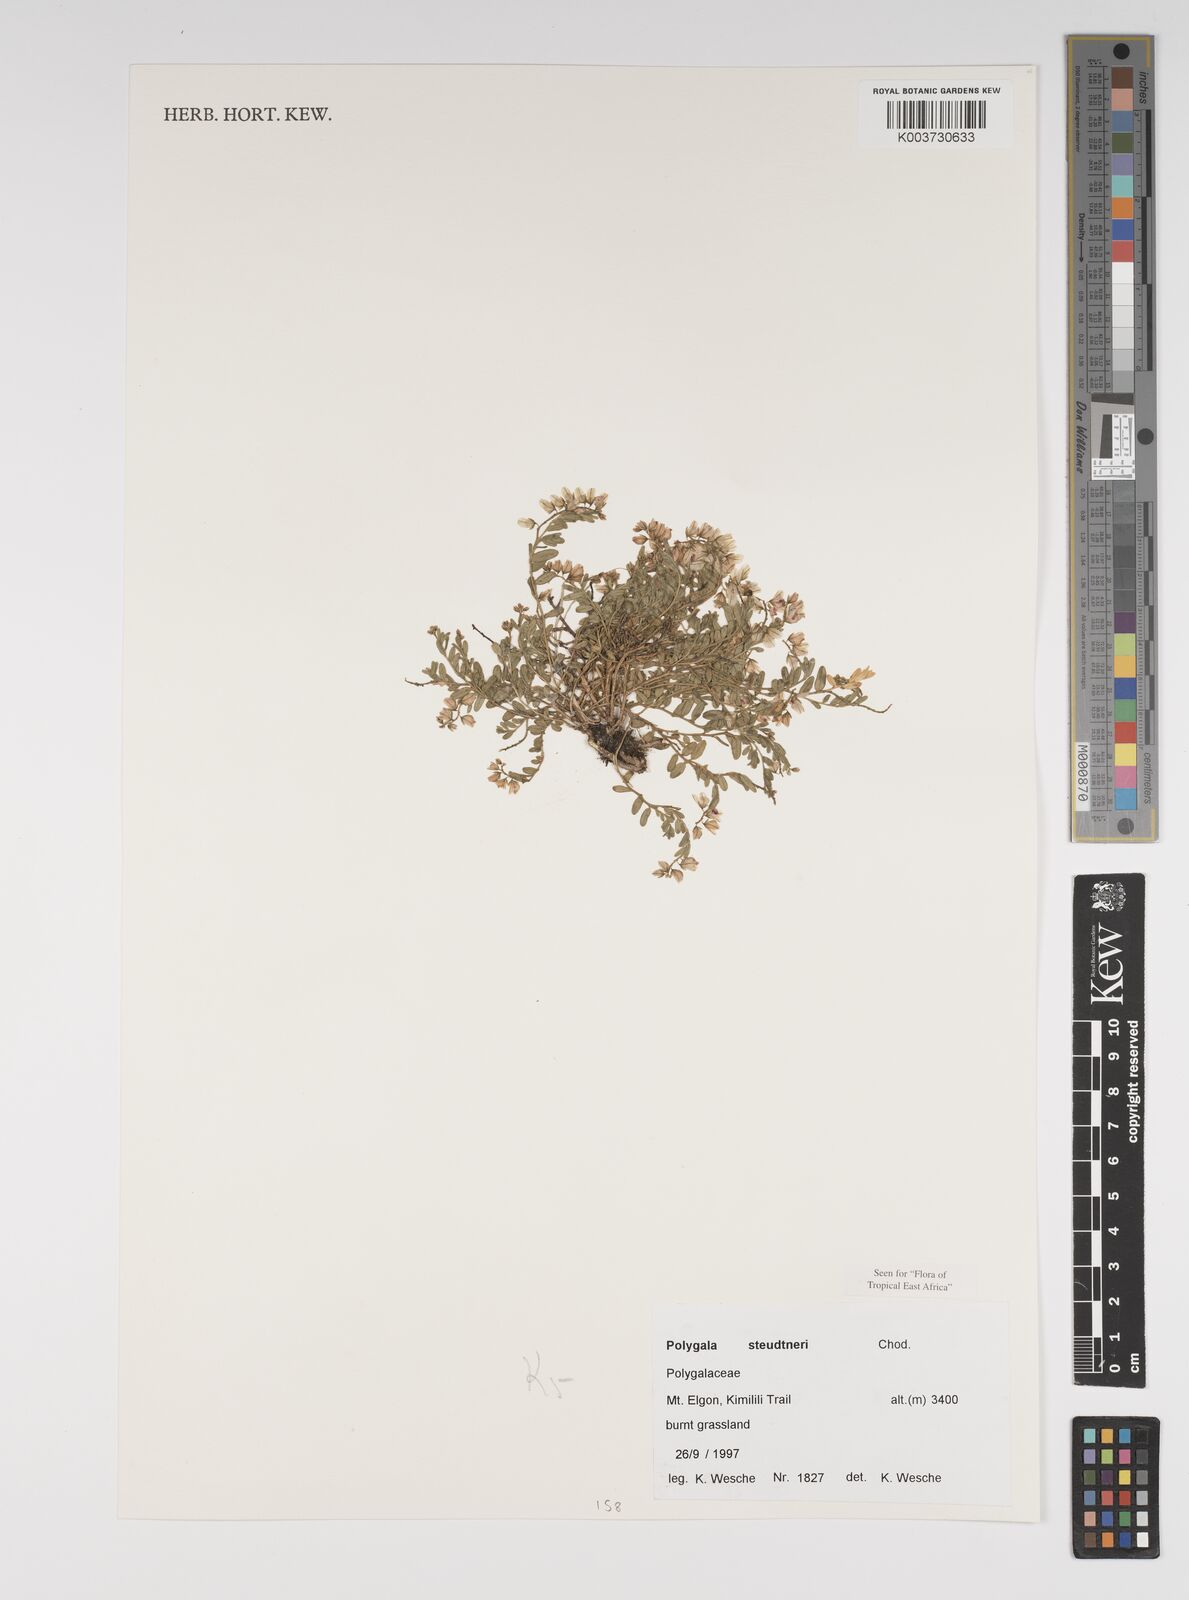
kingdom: Plantae
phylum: Tracheophyta
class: Magnoliopsida
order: Fabales
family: Polygalaceae
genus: Polygala
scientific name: Polygala steudneri
